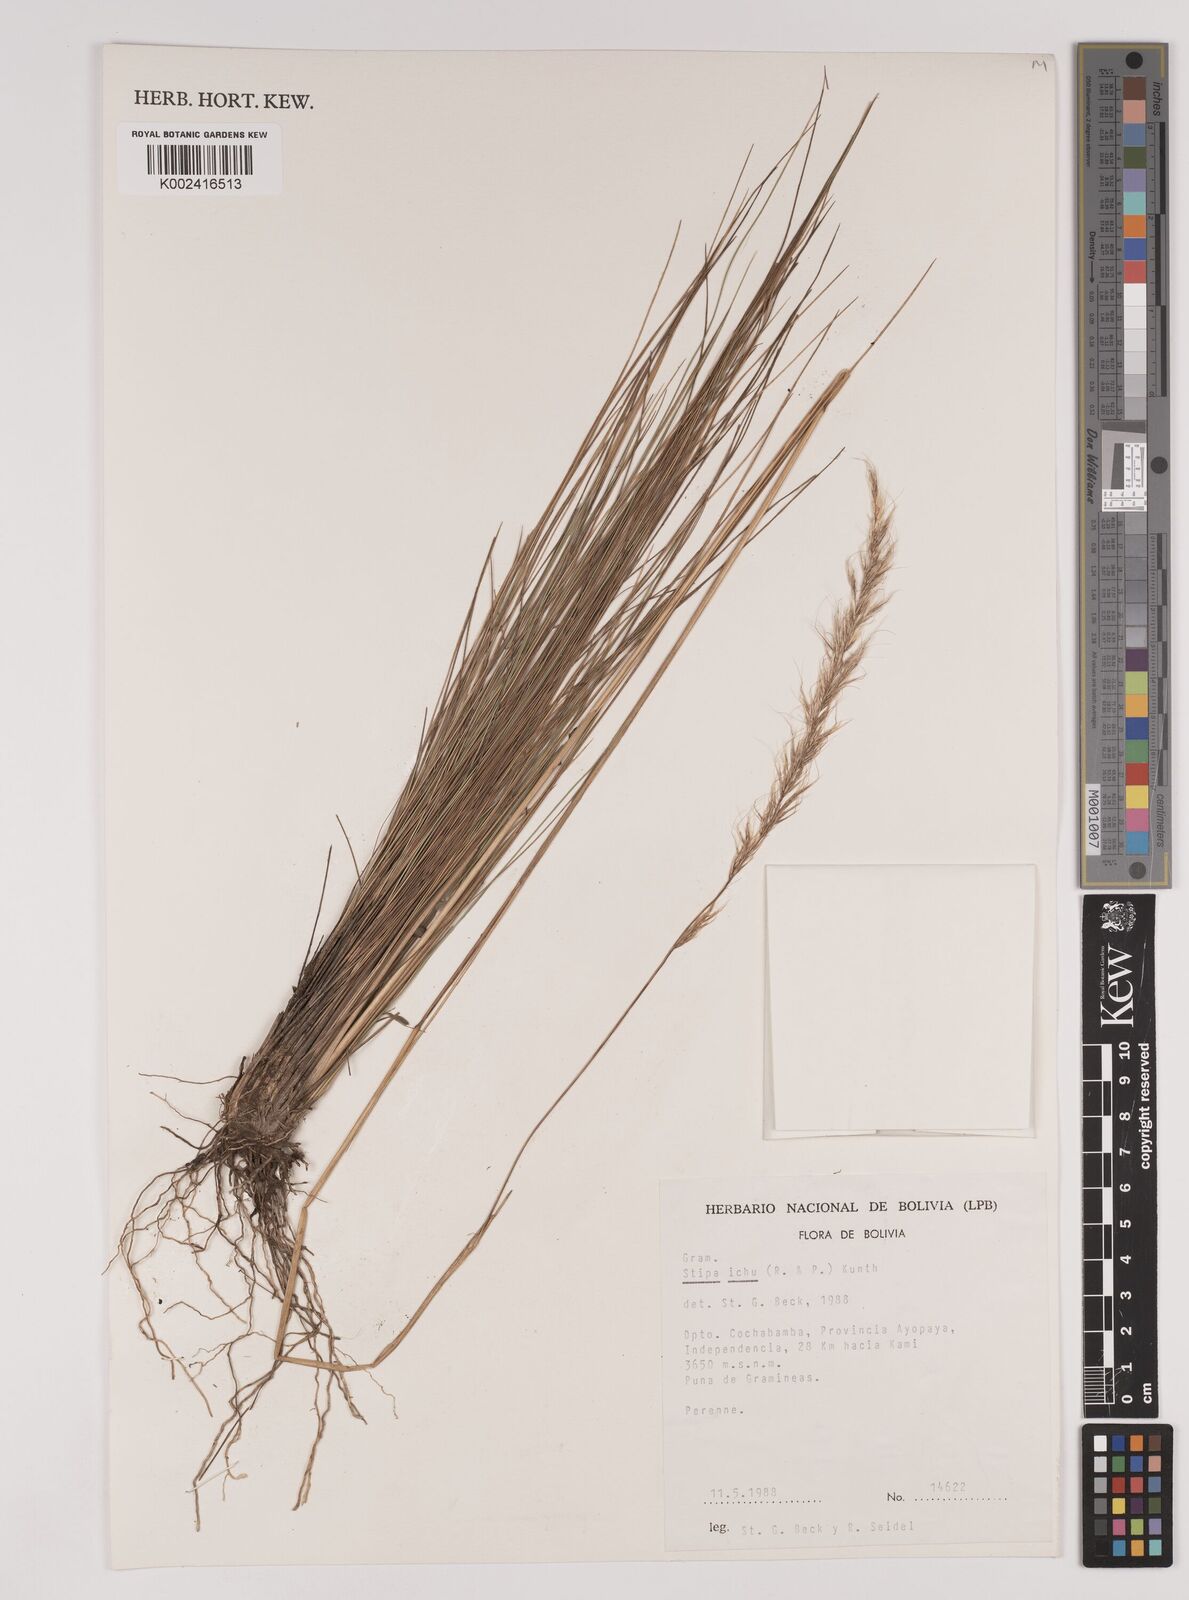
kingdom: Plantae
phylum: Tracheophyta
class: Liliopsida
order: Poales
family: Poaceae
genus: Jarava
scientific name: Jarava ichu
